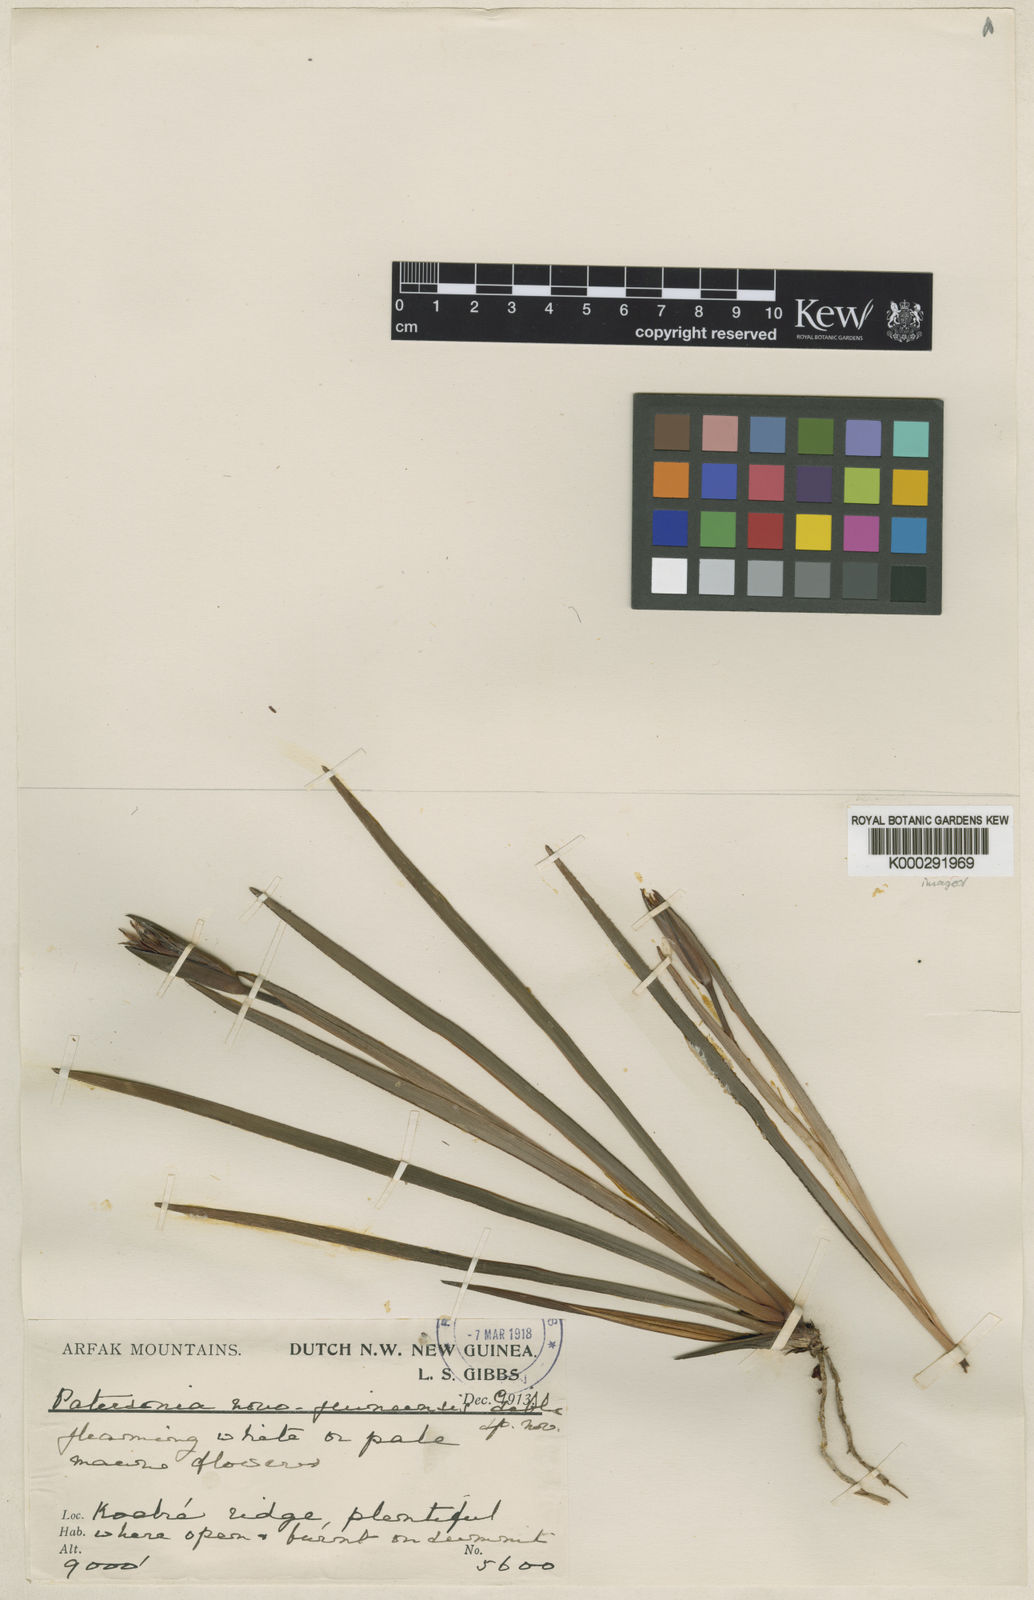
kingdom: Plantae
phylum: Tracheophyta
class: Liliopsida
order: Asparagales
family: Iridaceae
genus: Patersonia
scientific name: Patersonia novoguineensis
